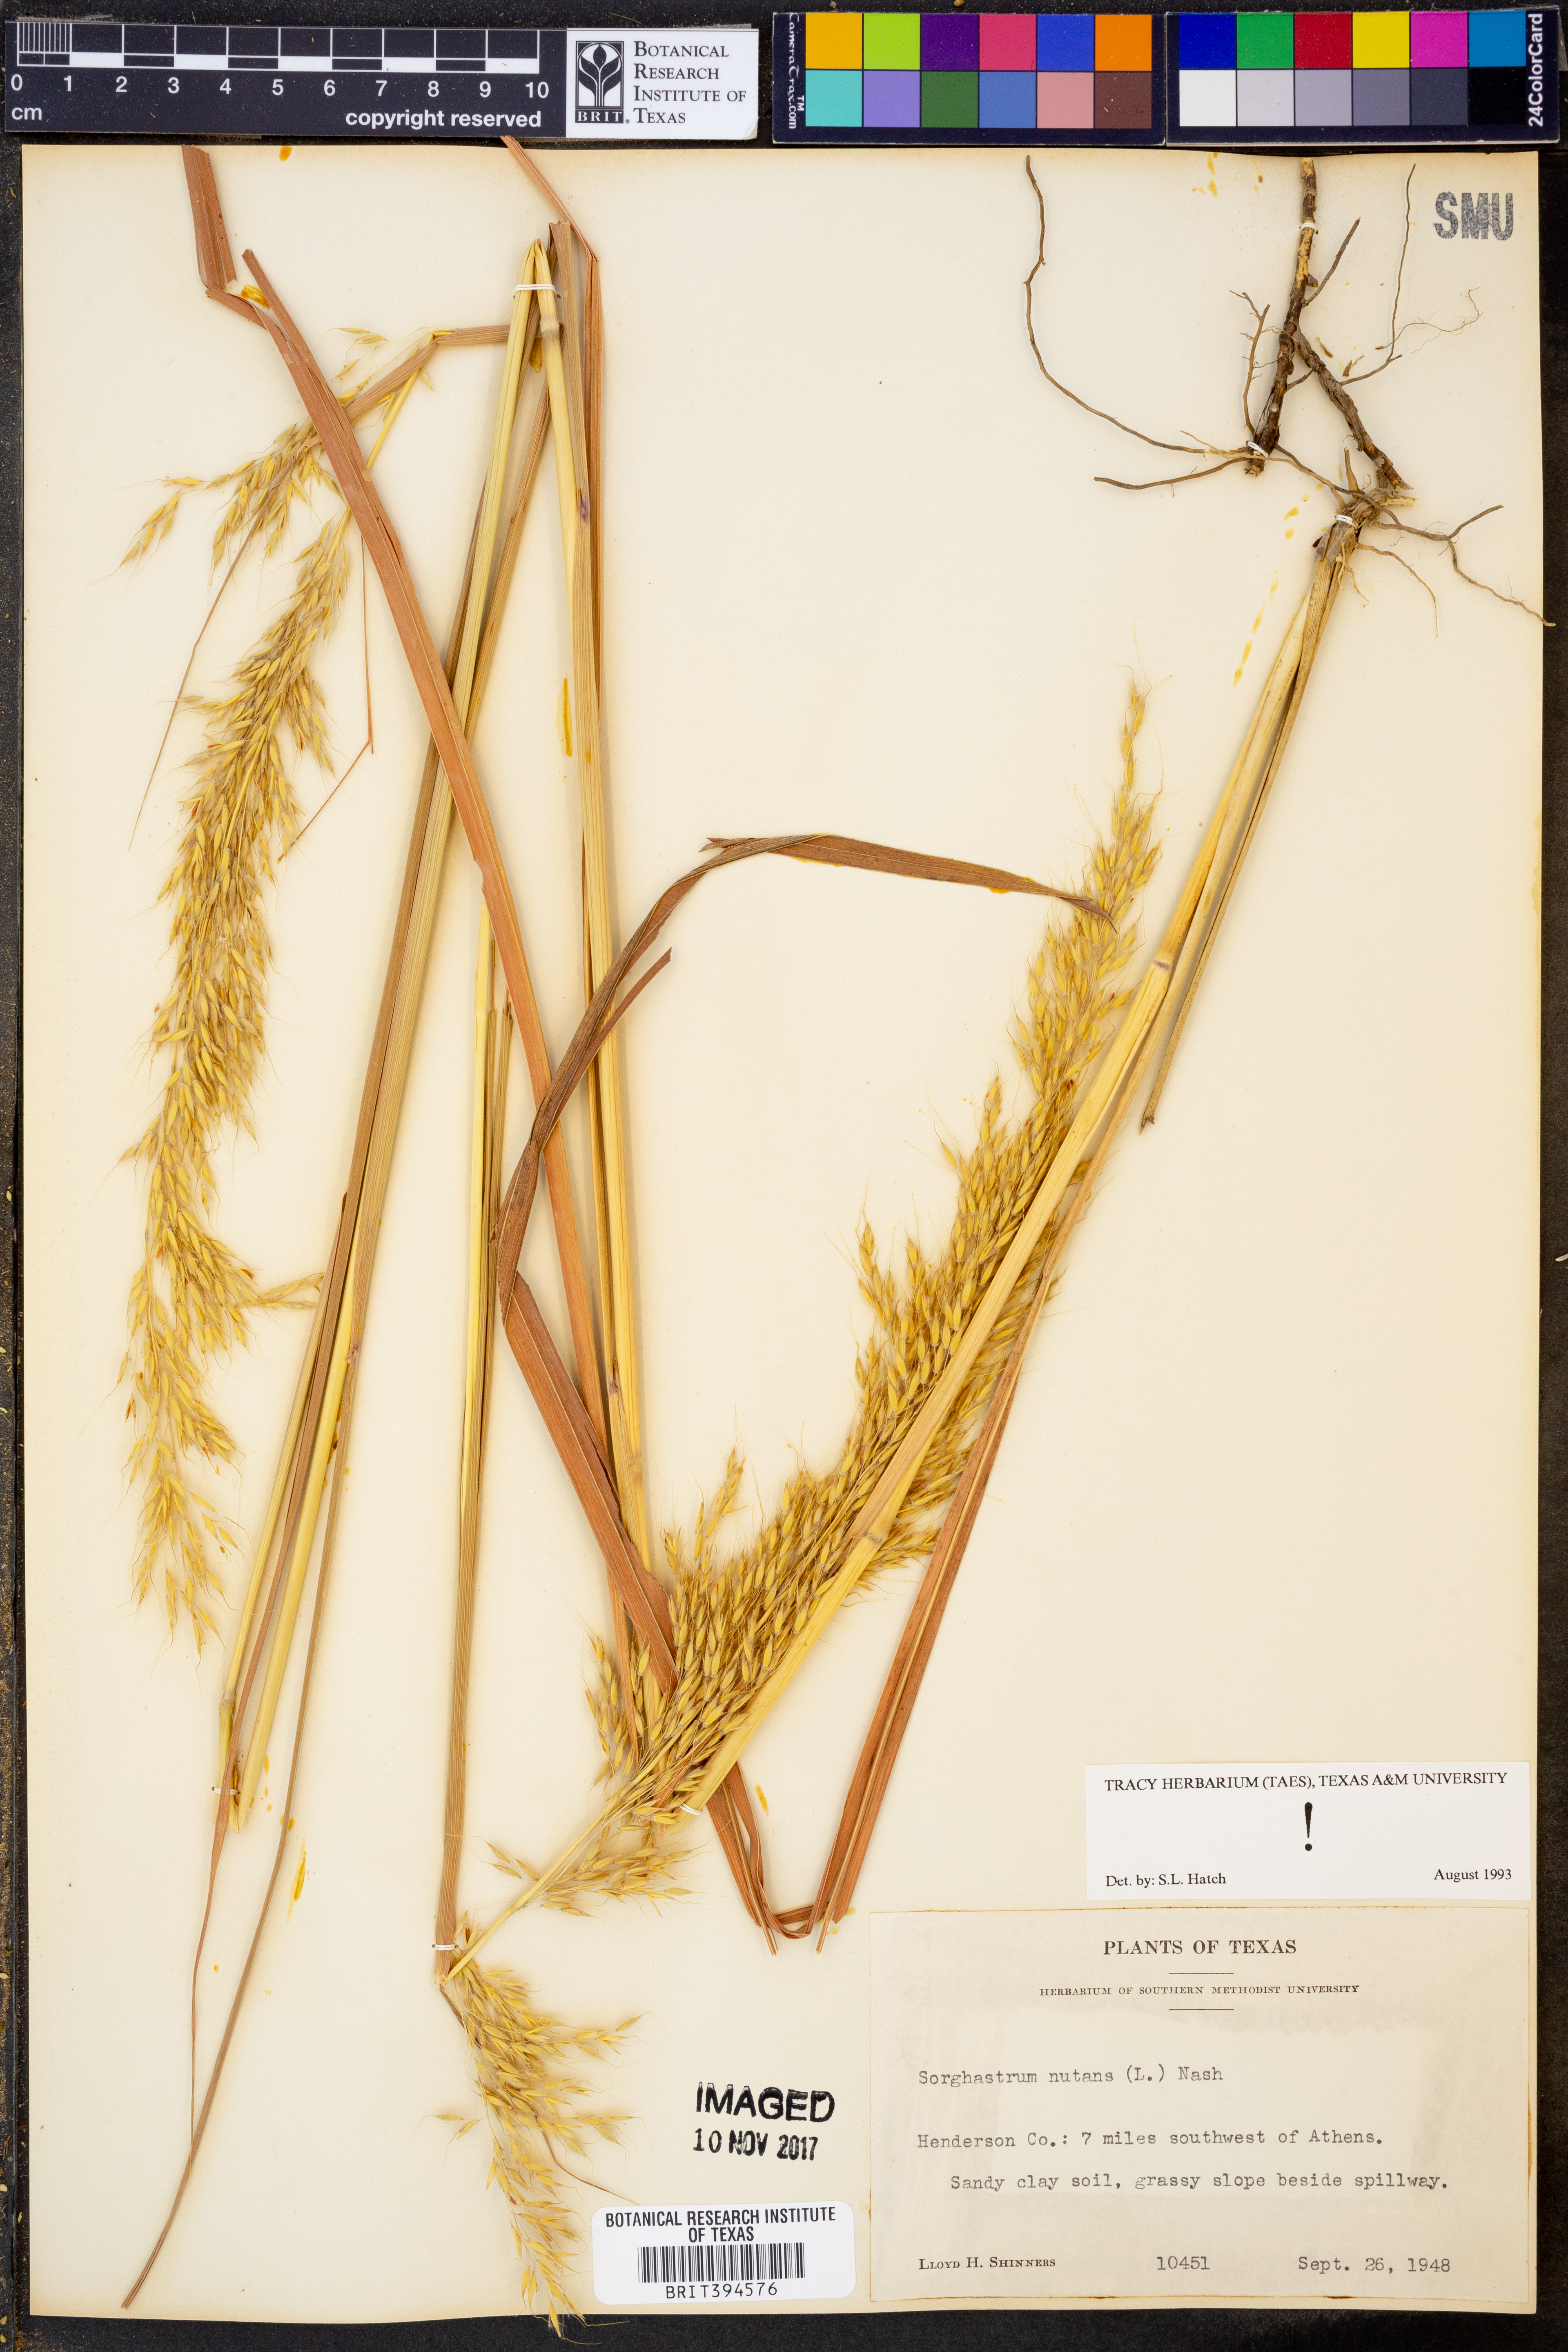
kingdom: Plantae
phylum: Tracheophyta
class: Liliopsida
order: Poales
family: Poaceae
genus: Sorghastrum
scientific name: Sorghastrum nutans
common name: Indian grass
